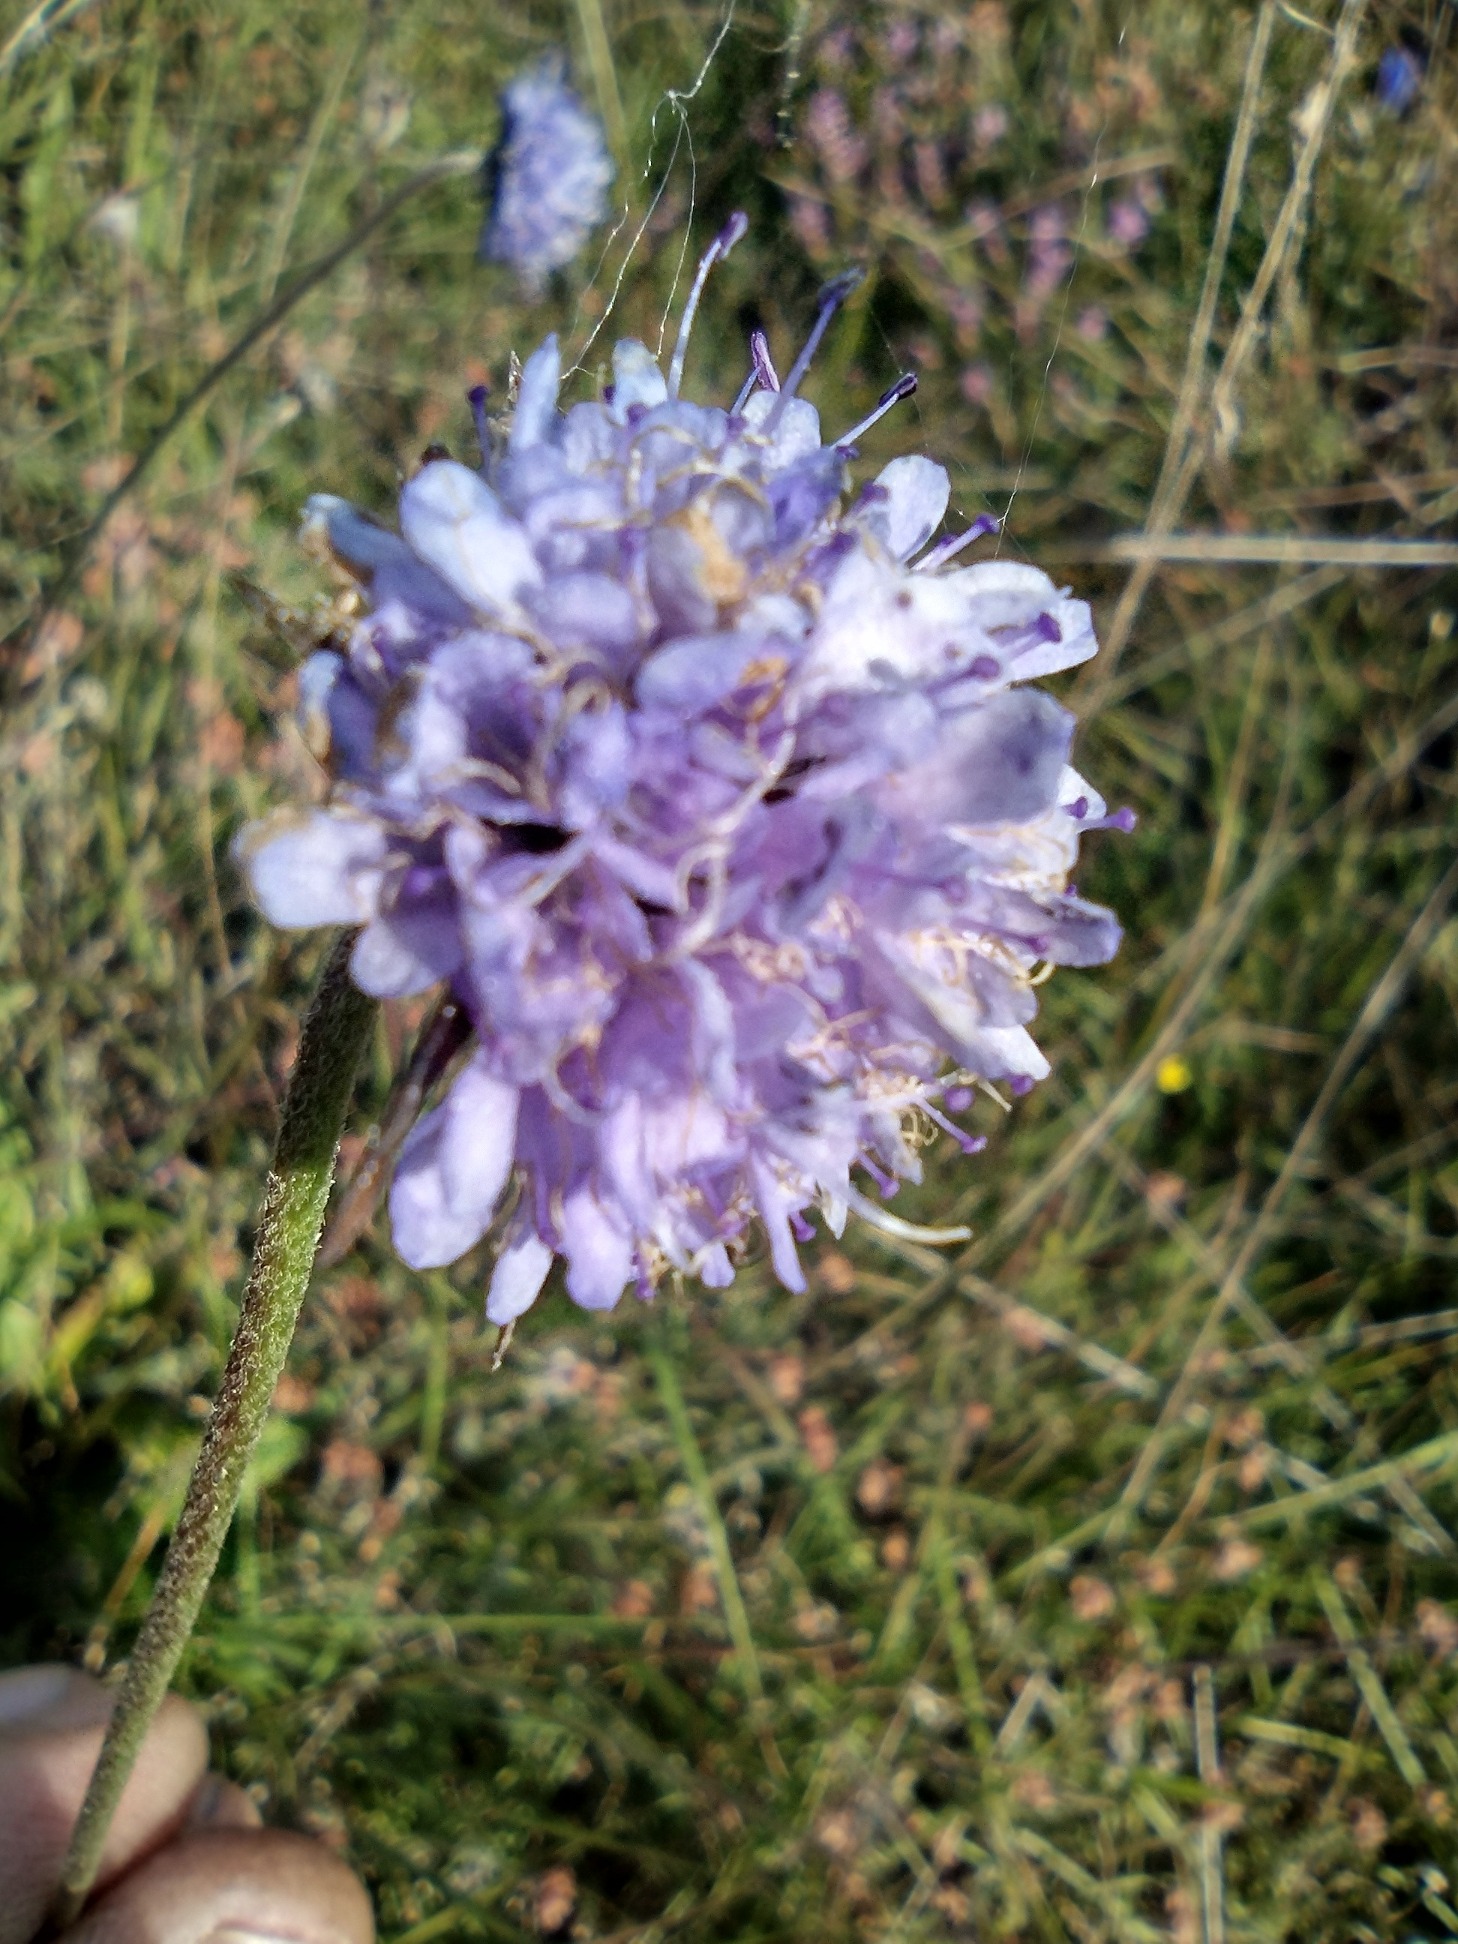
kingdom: Plantae
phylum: Tracheophyta
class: Magnoliopsida
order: Dipsacales
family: Caprifoliaceae
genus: Succisa
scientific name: Succisa pratensis
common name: Djævelsbid
